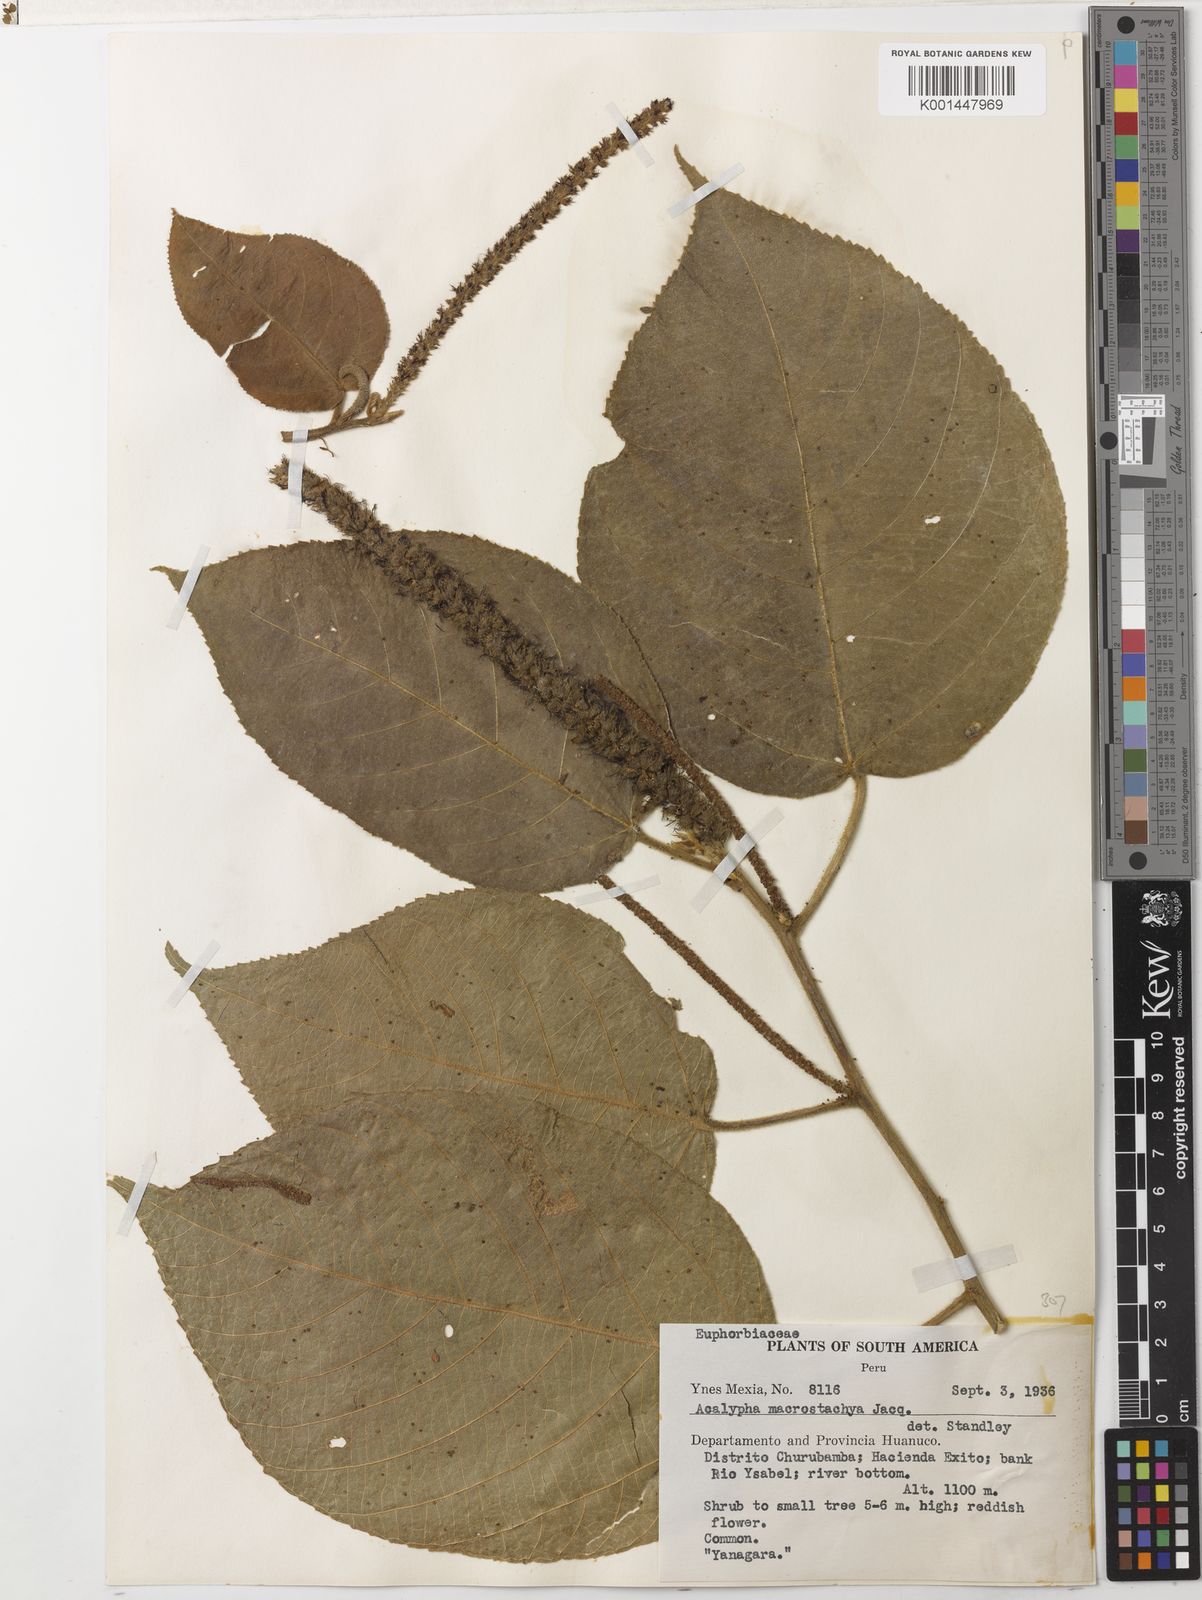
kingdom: Plantae
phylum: Tracheophyta
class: Magnoliopsida
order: Malpighiales
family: Euphorbiaceae
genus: Acalypha
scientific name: Acalypha macrostachya
